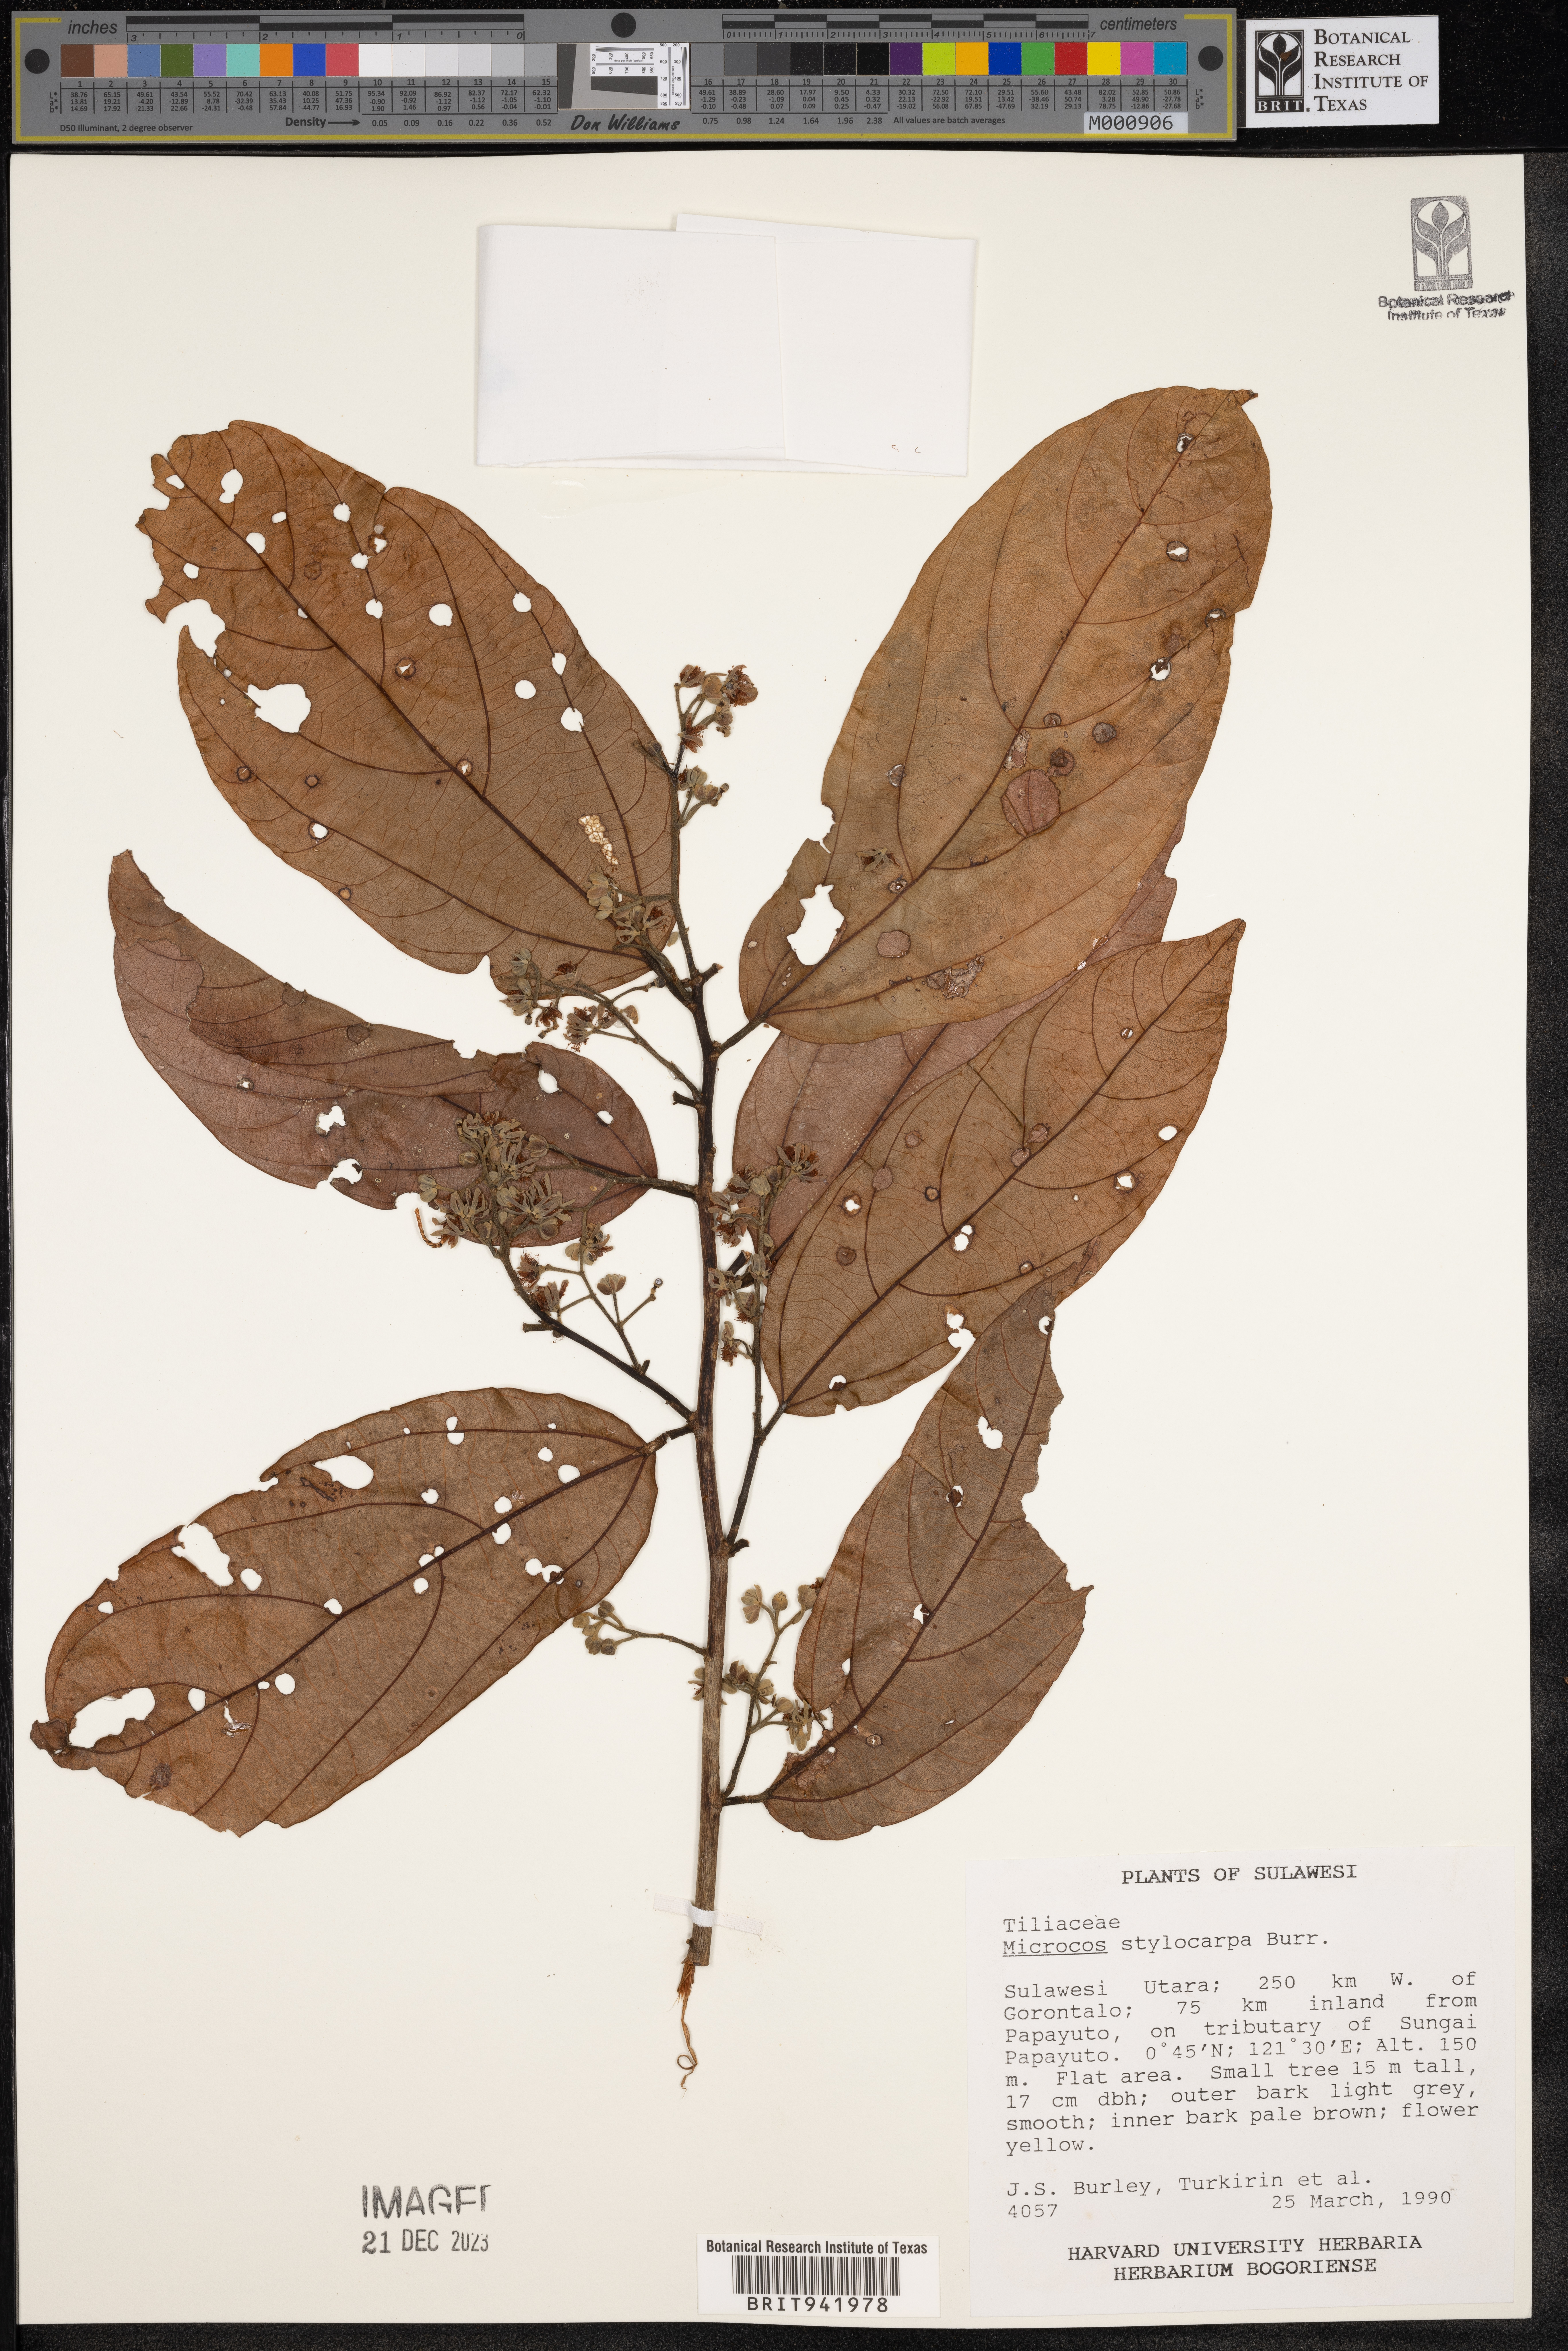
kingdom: Plantae
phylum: Tracheophyta
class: Magnoliopsida
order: Malvales
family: Malvaceae
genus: Microcos
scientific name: Microcos
